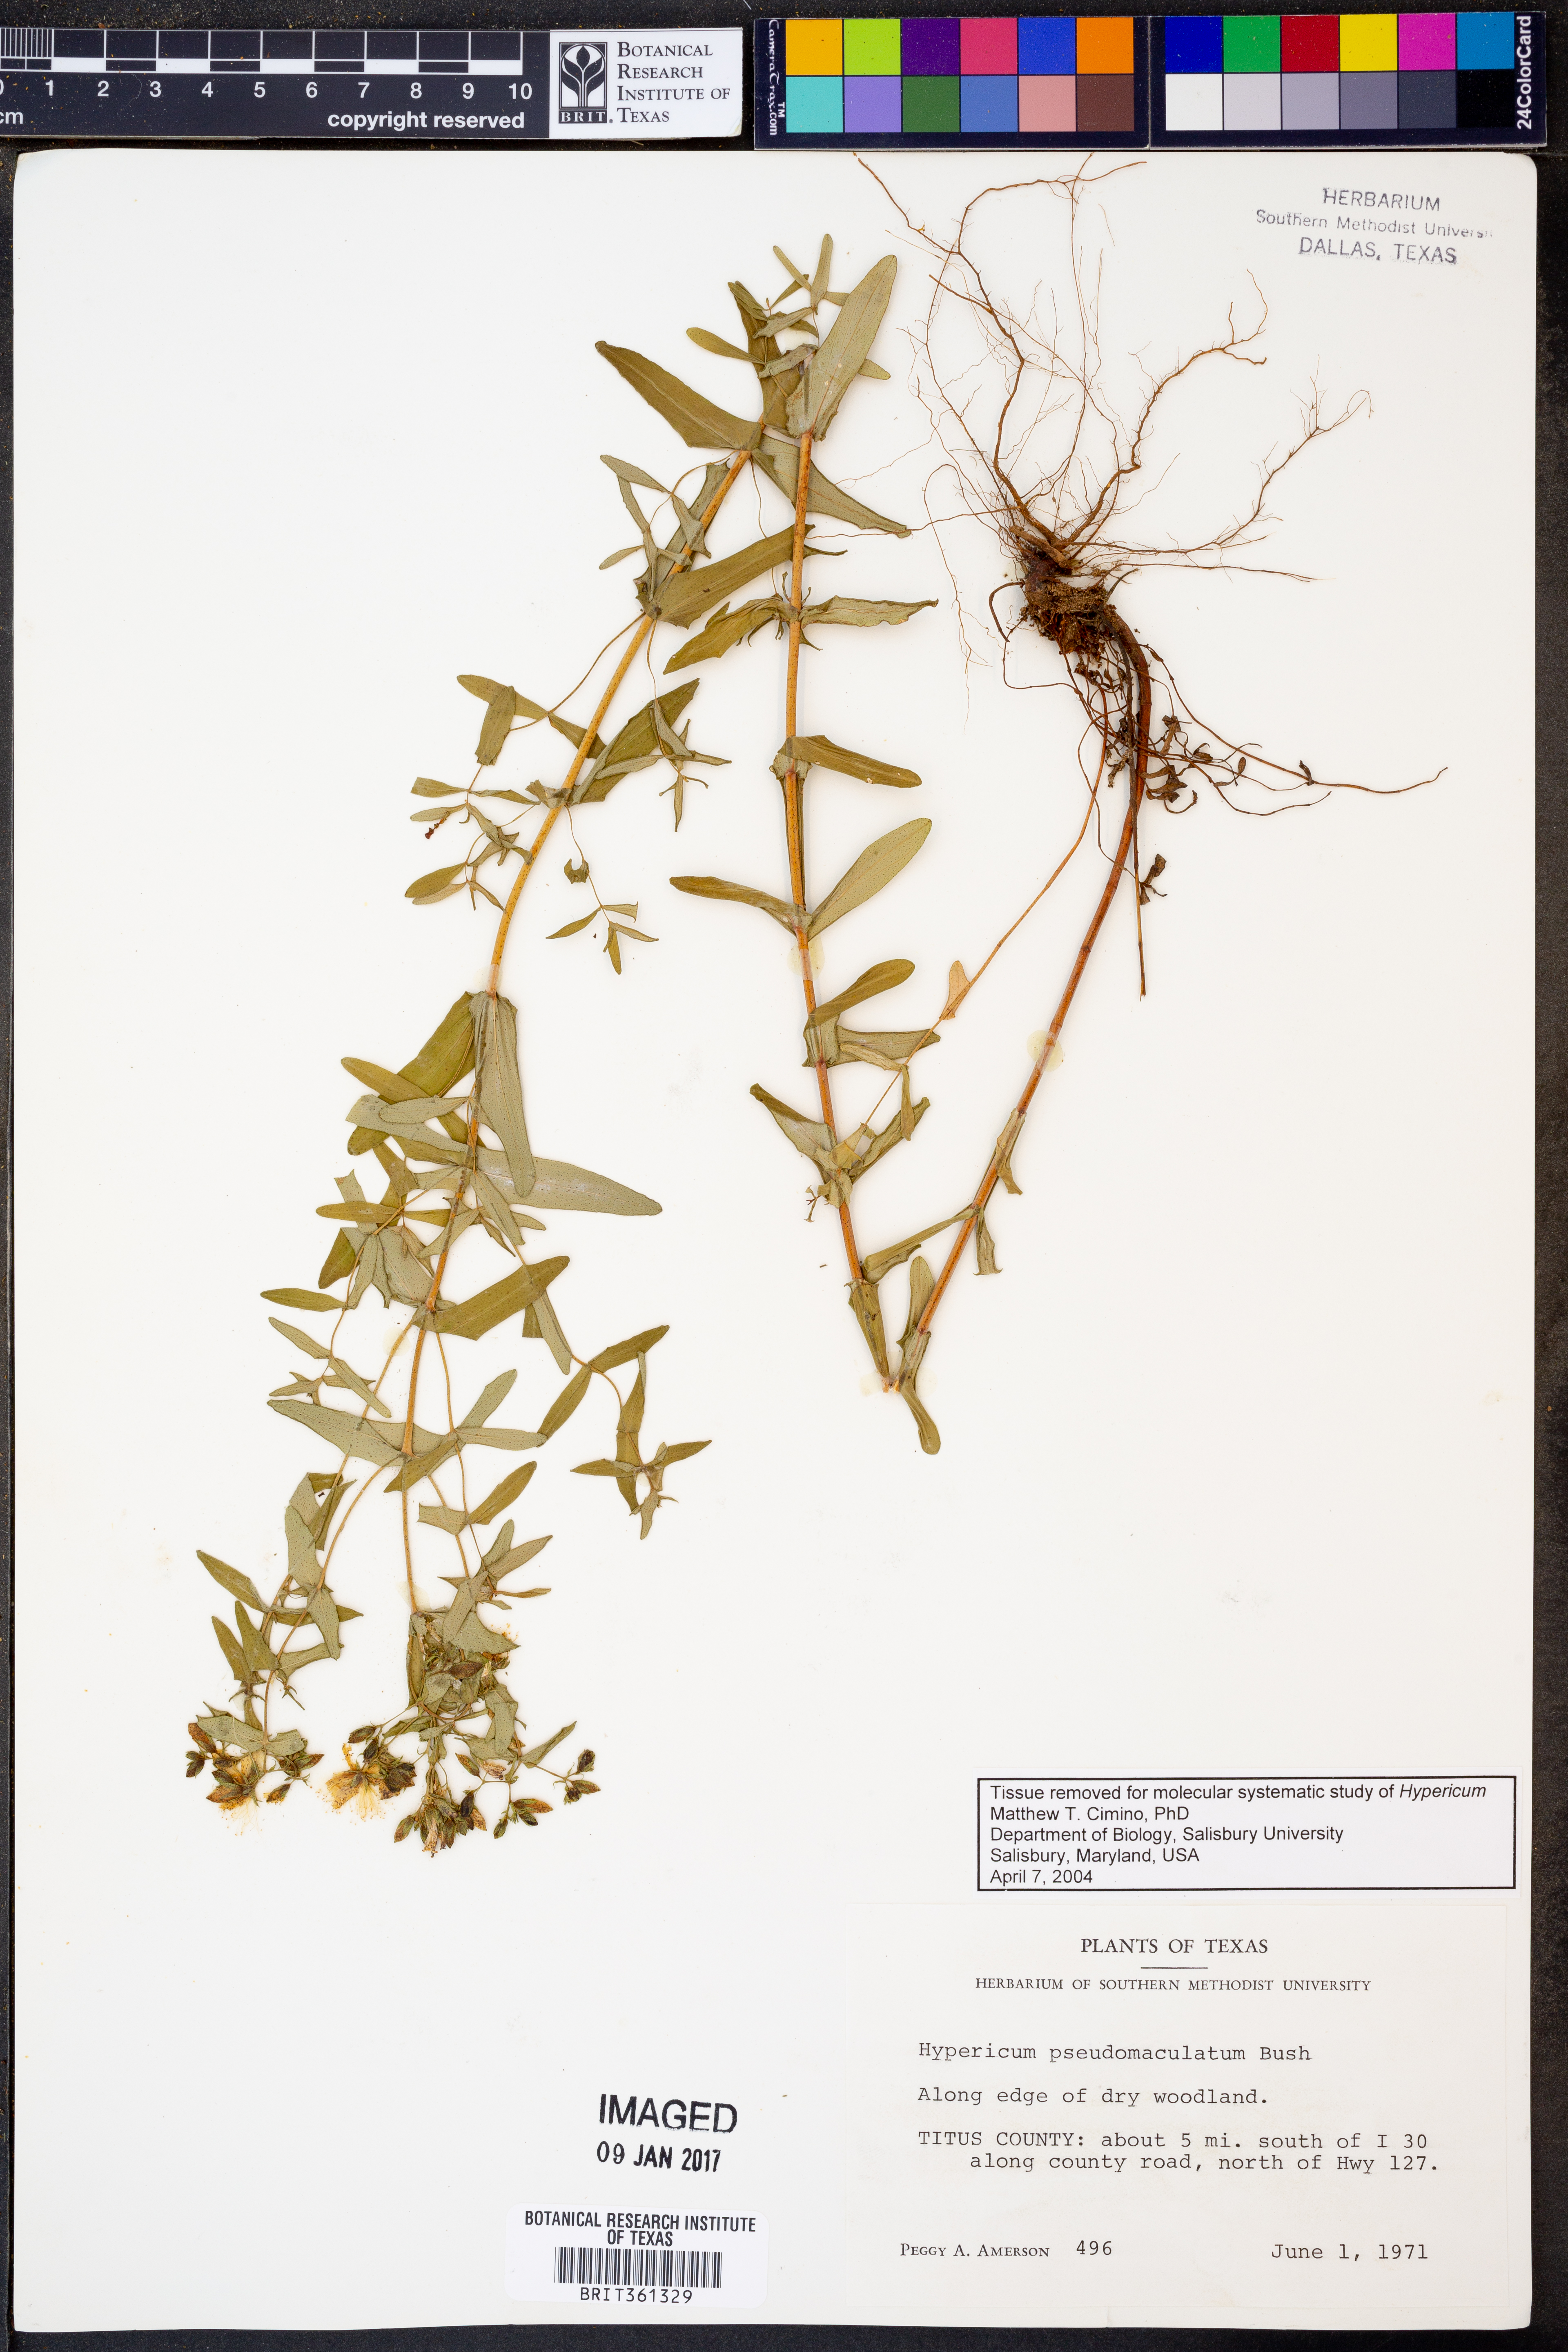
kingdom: Plantae
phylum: Tracheophyta
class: Magnoliopsida
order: Malpighiales
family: Hypericaceae
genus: Hypericum
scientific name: Hypericum pseudomaculatum
